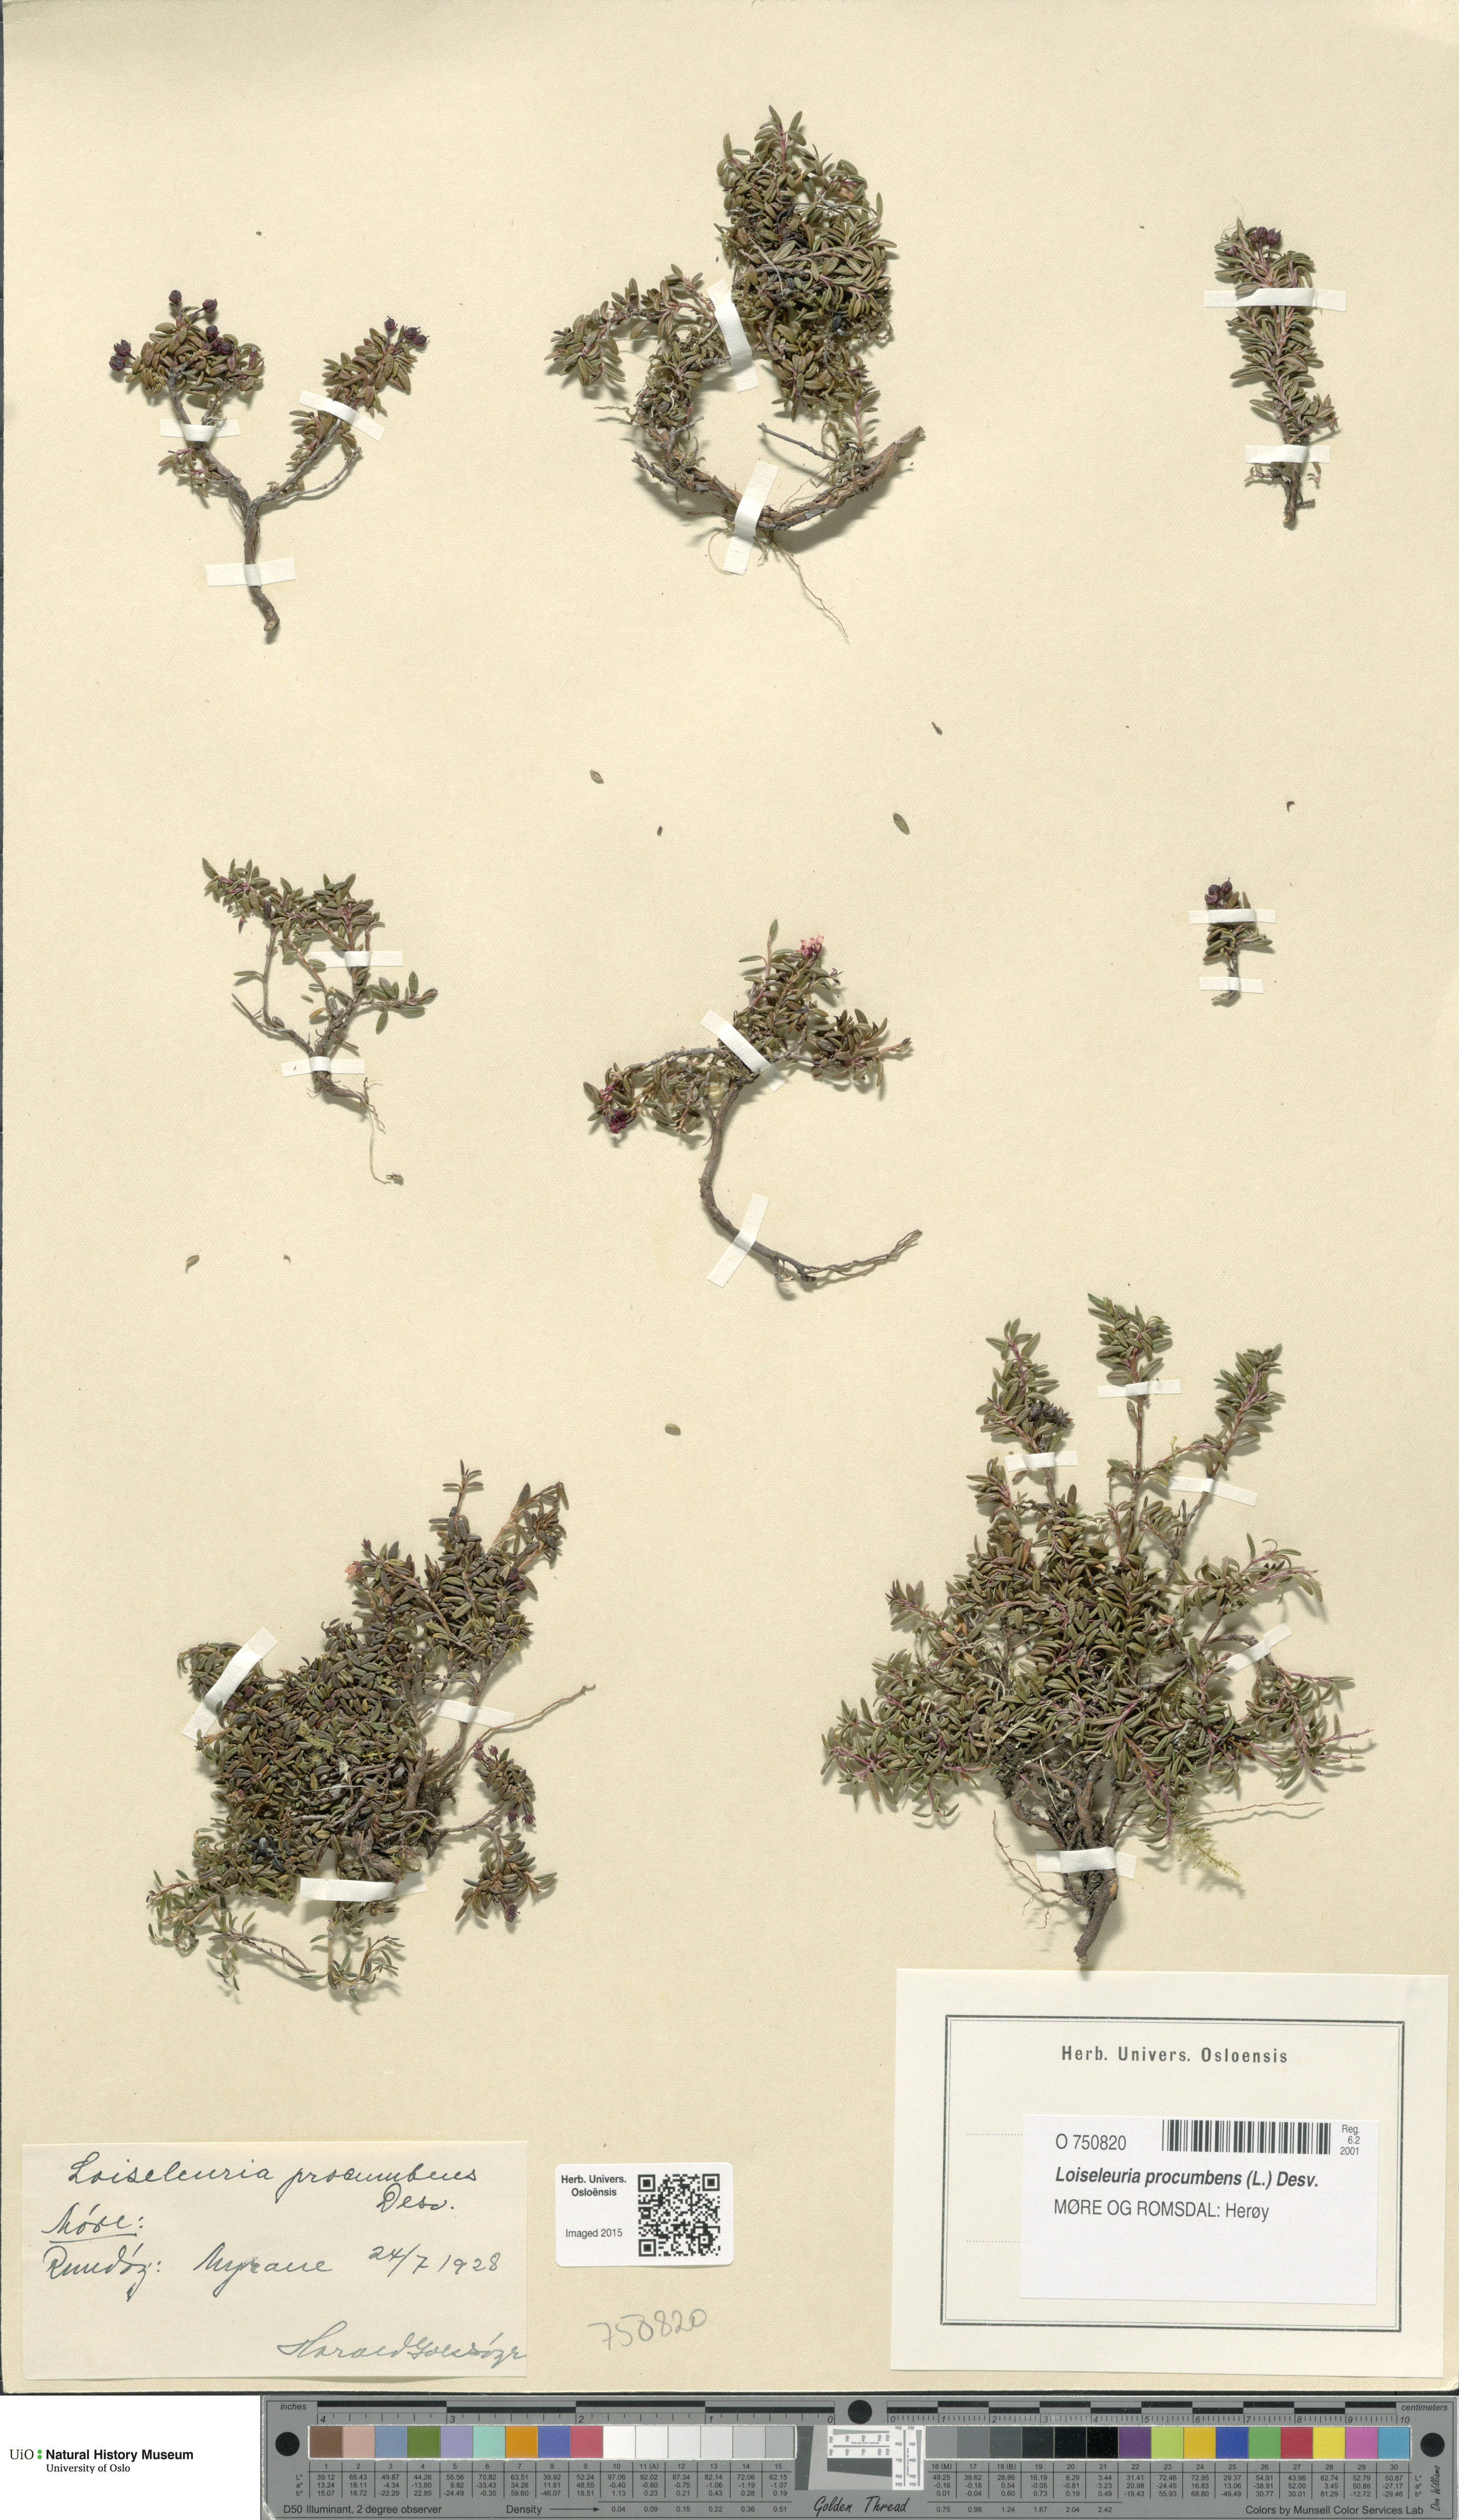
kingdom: Plantae
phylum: Tracheophyta
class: Magnoliopsida
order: Ericales
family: Ericaceae
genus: Kalmia
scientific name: Kalmia procumbens
